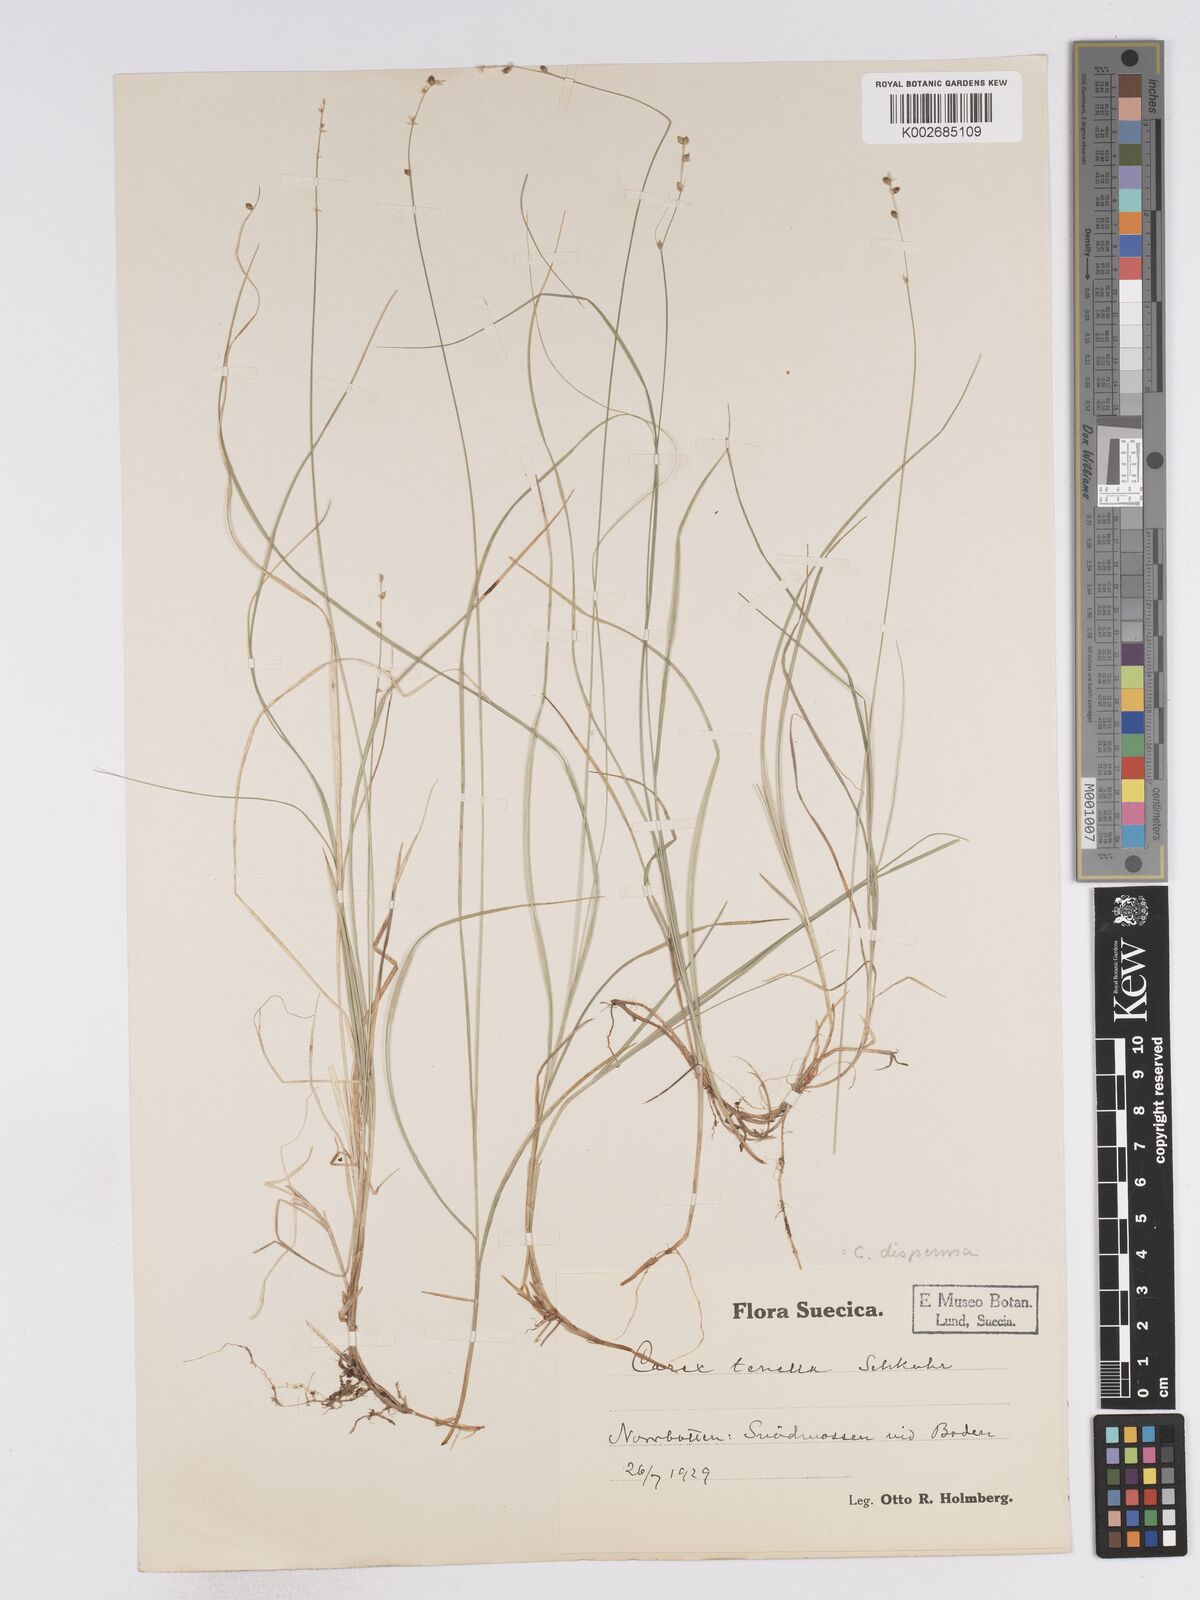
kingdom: Plantae
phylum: Tracheophyta
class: Liliopsida
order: Poales
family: Cyperaceae
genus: Carex
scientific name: Carex disperma
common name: Short-leaved sedge
